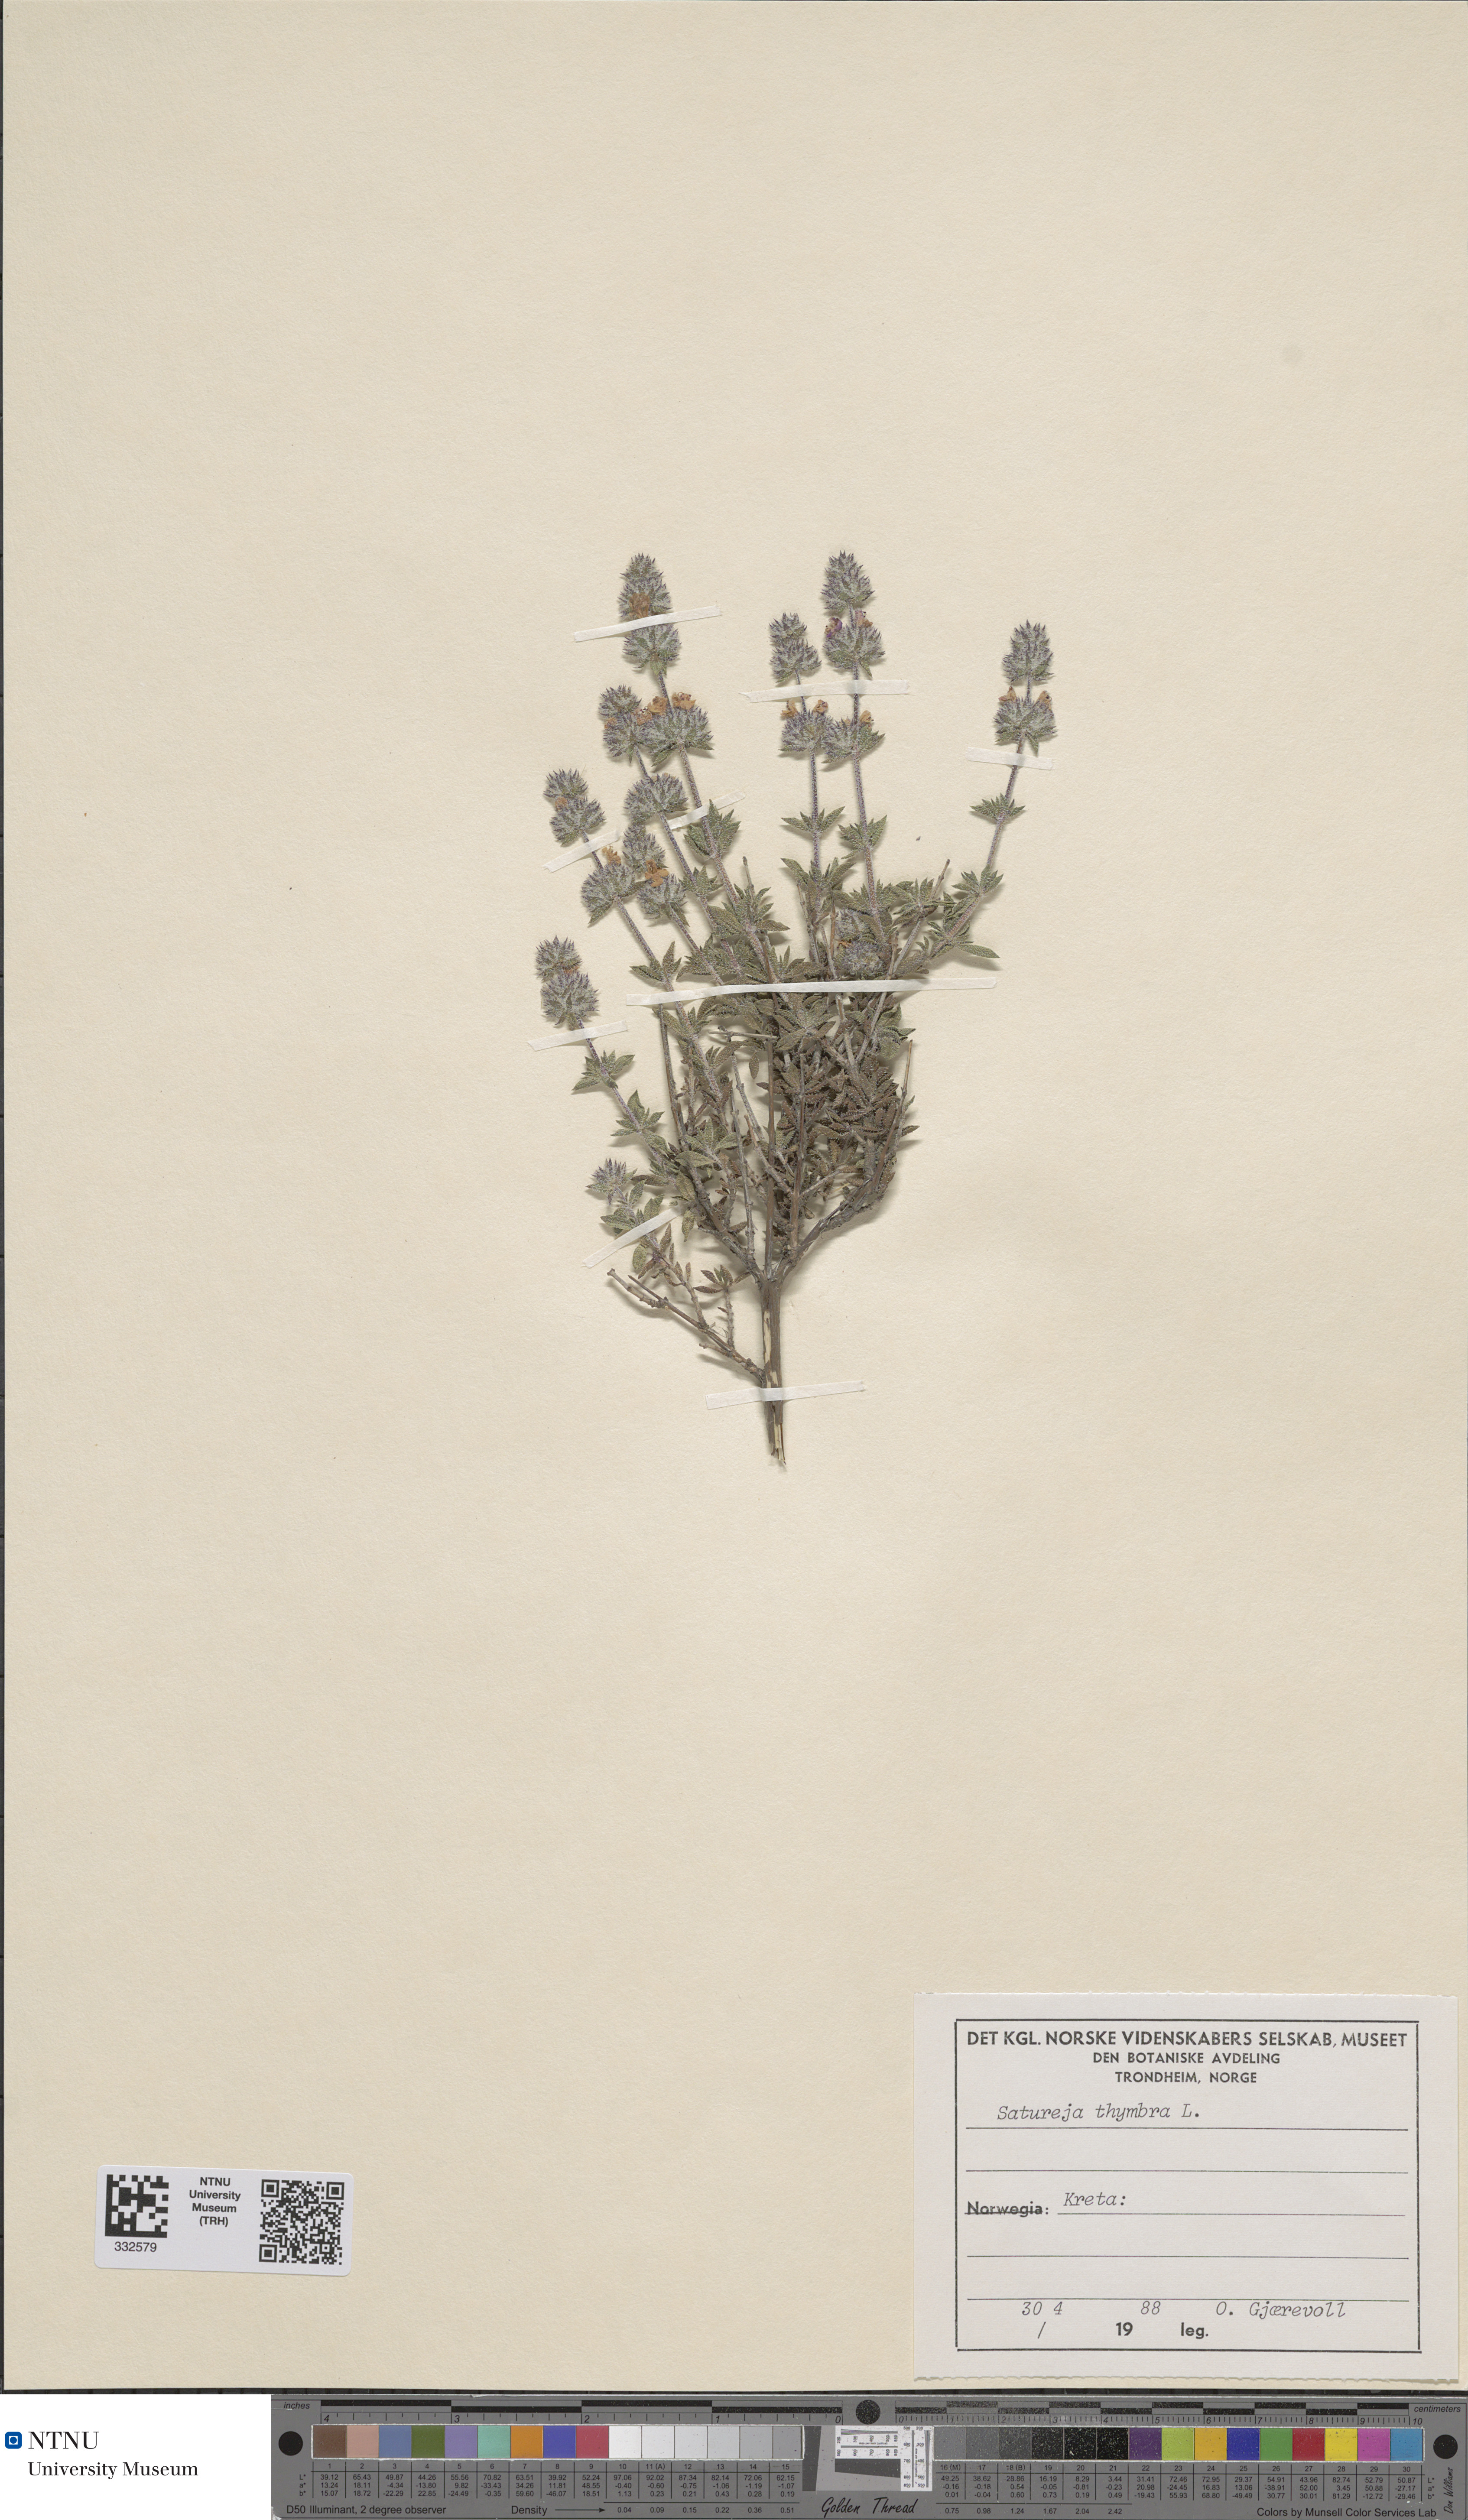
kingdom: Plantae
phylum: Tracheophyta
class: Magnoliopsida
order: Lamiales
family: Lamiaceae
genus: Satureja
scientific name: Satureja thymbra
